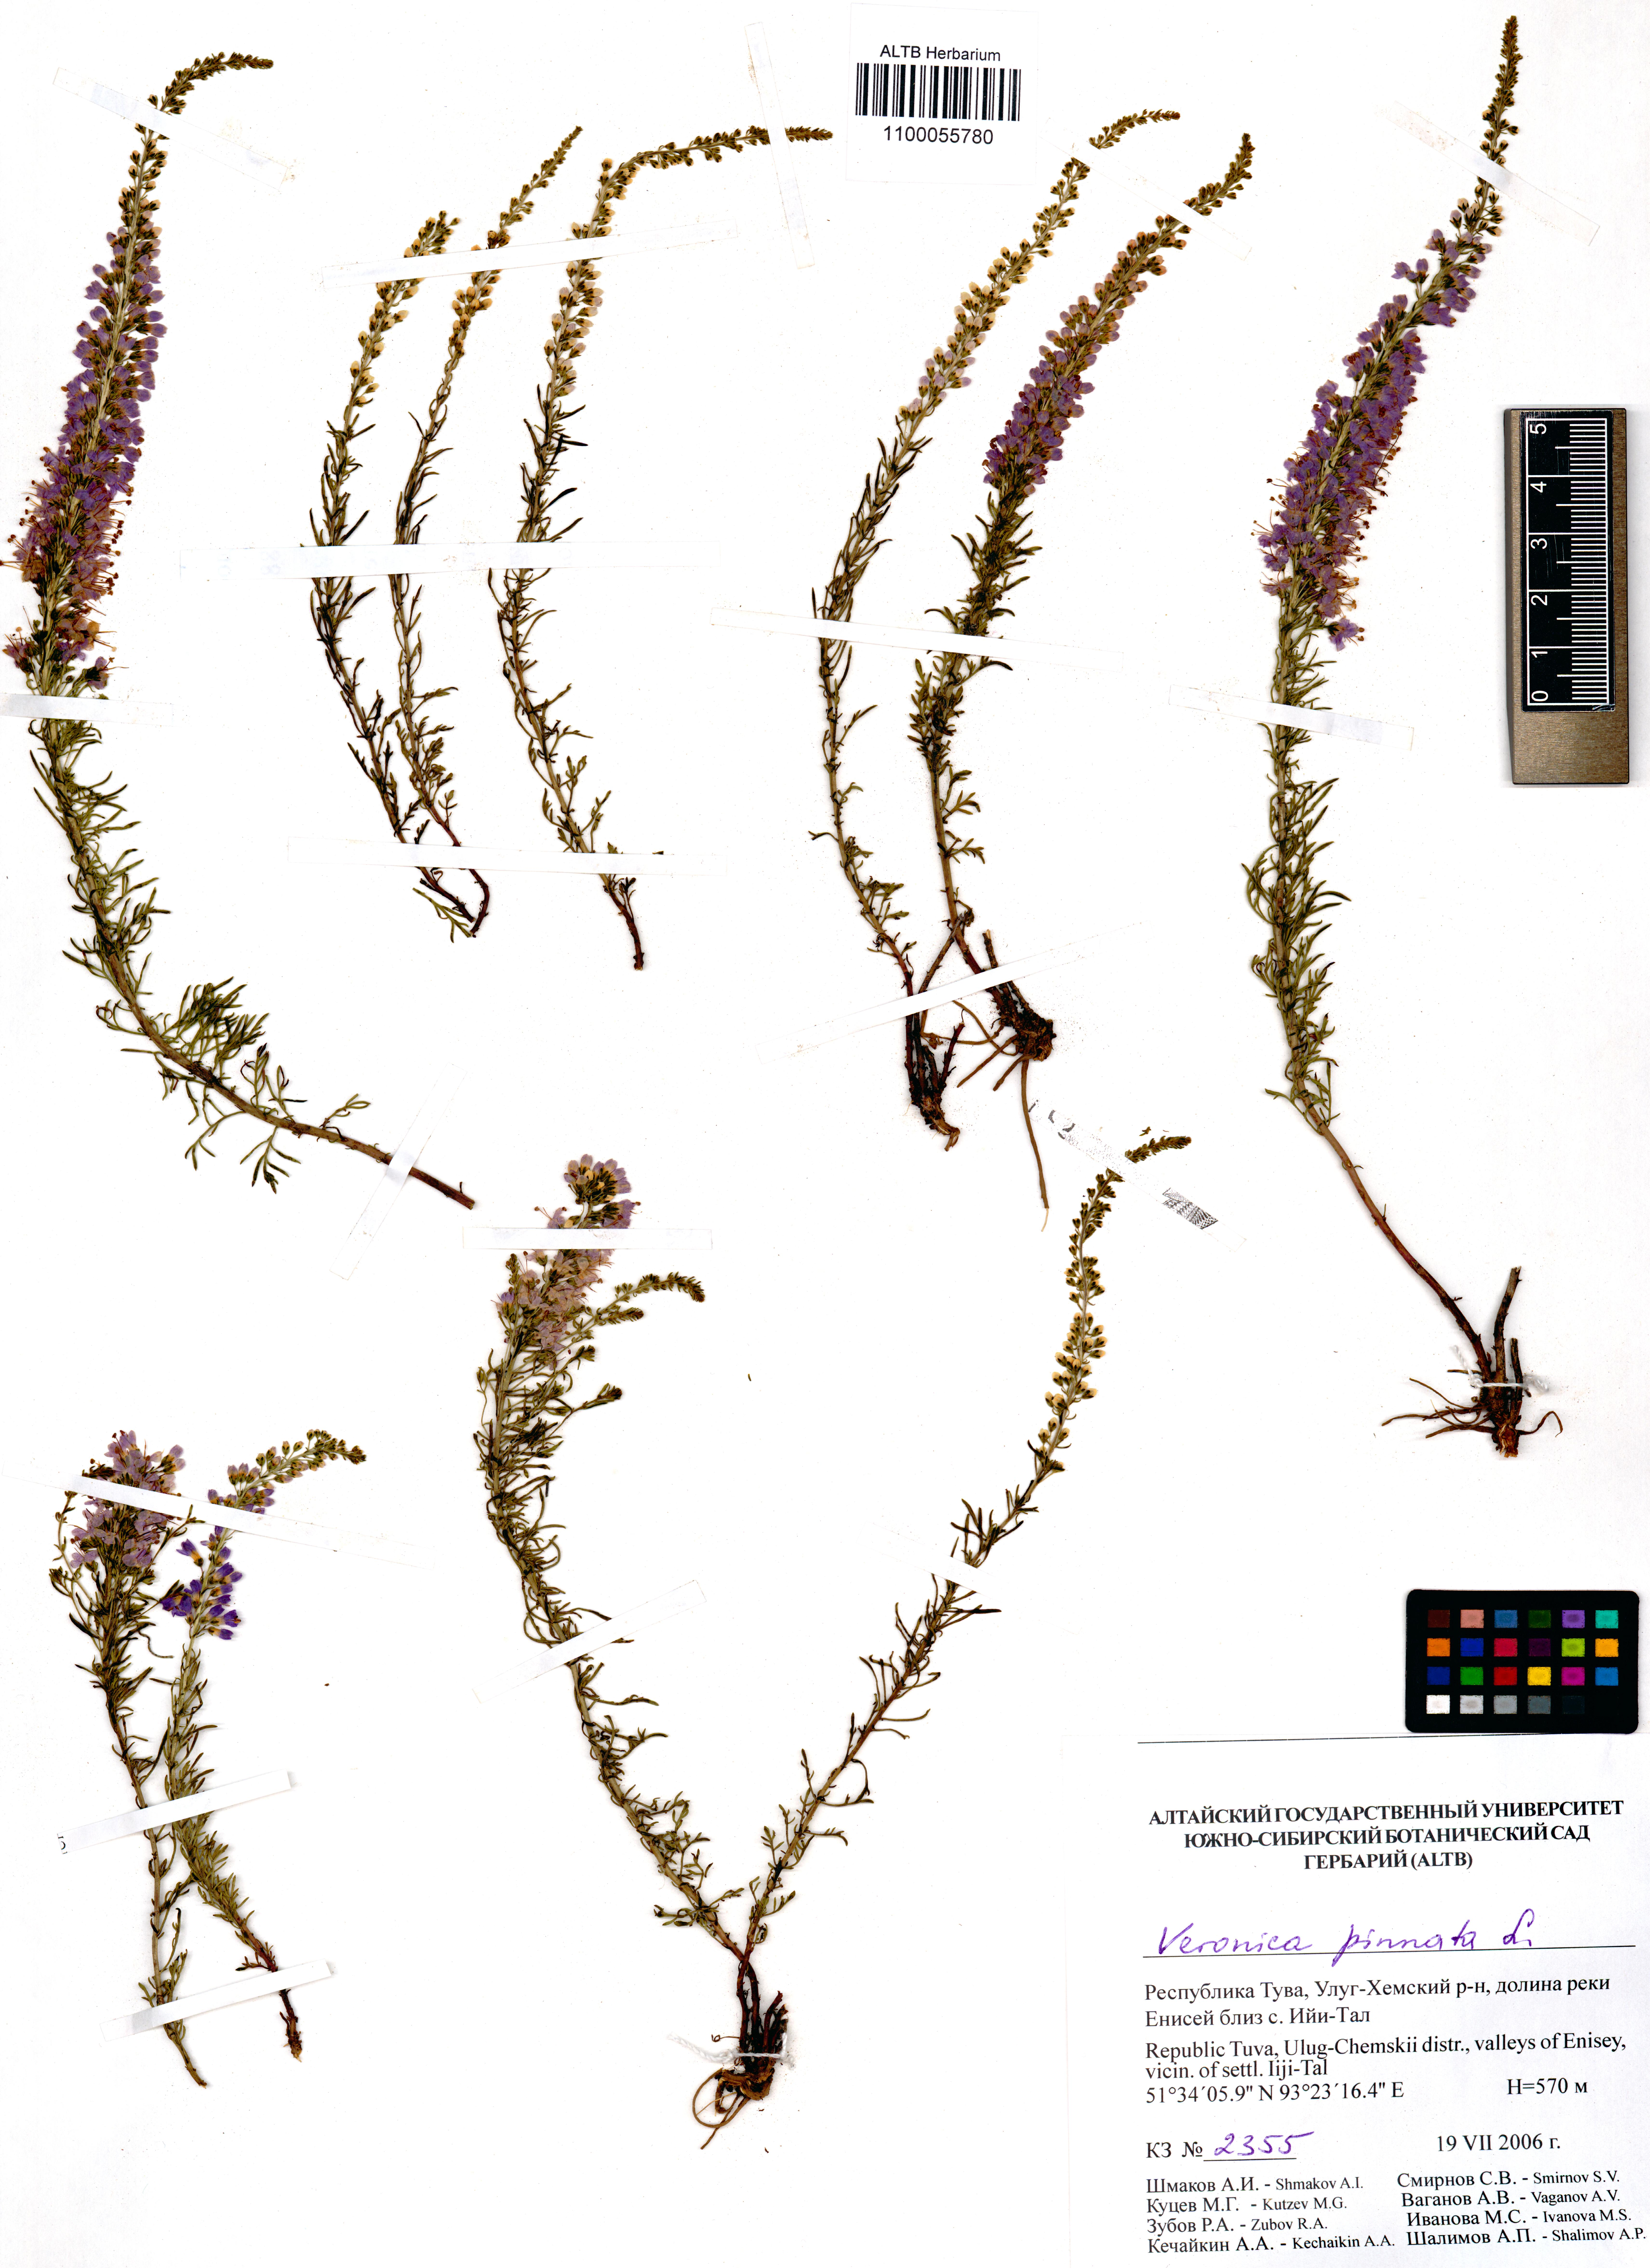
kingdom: Plantae
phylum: Tracheophyta
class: Magnoliopsida
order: Lamiales
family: Plantaginaceae
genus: Veronica
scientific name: Veronica pinnata
